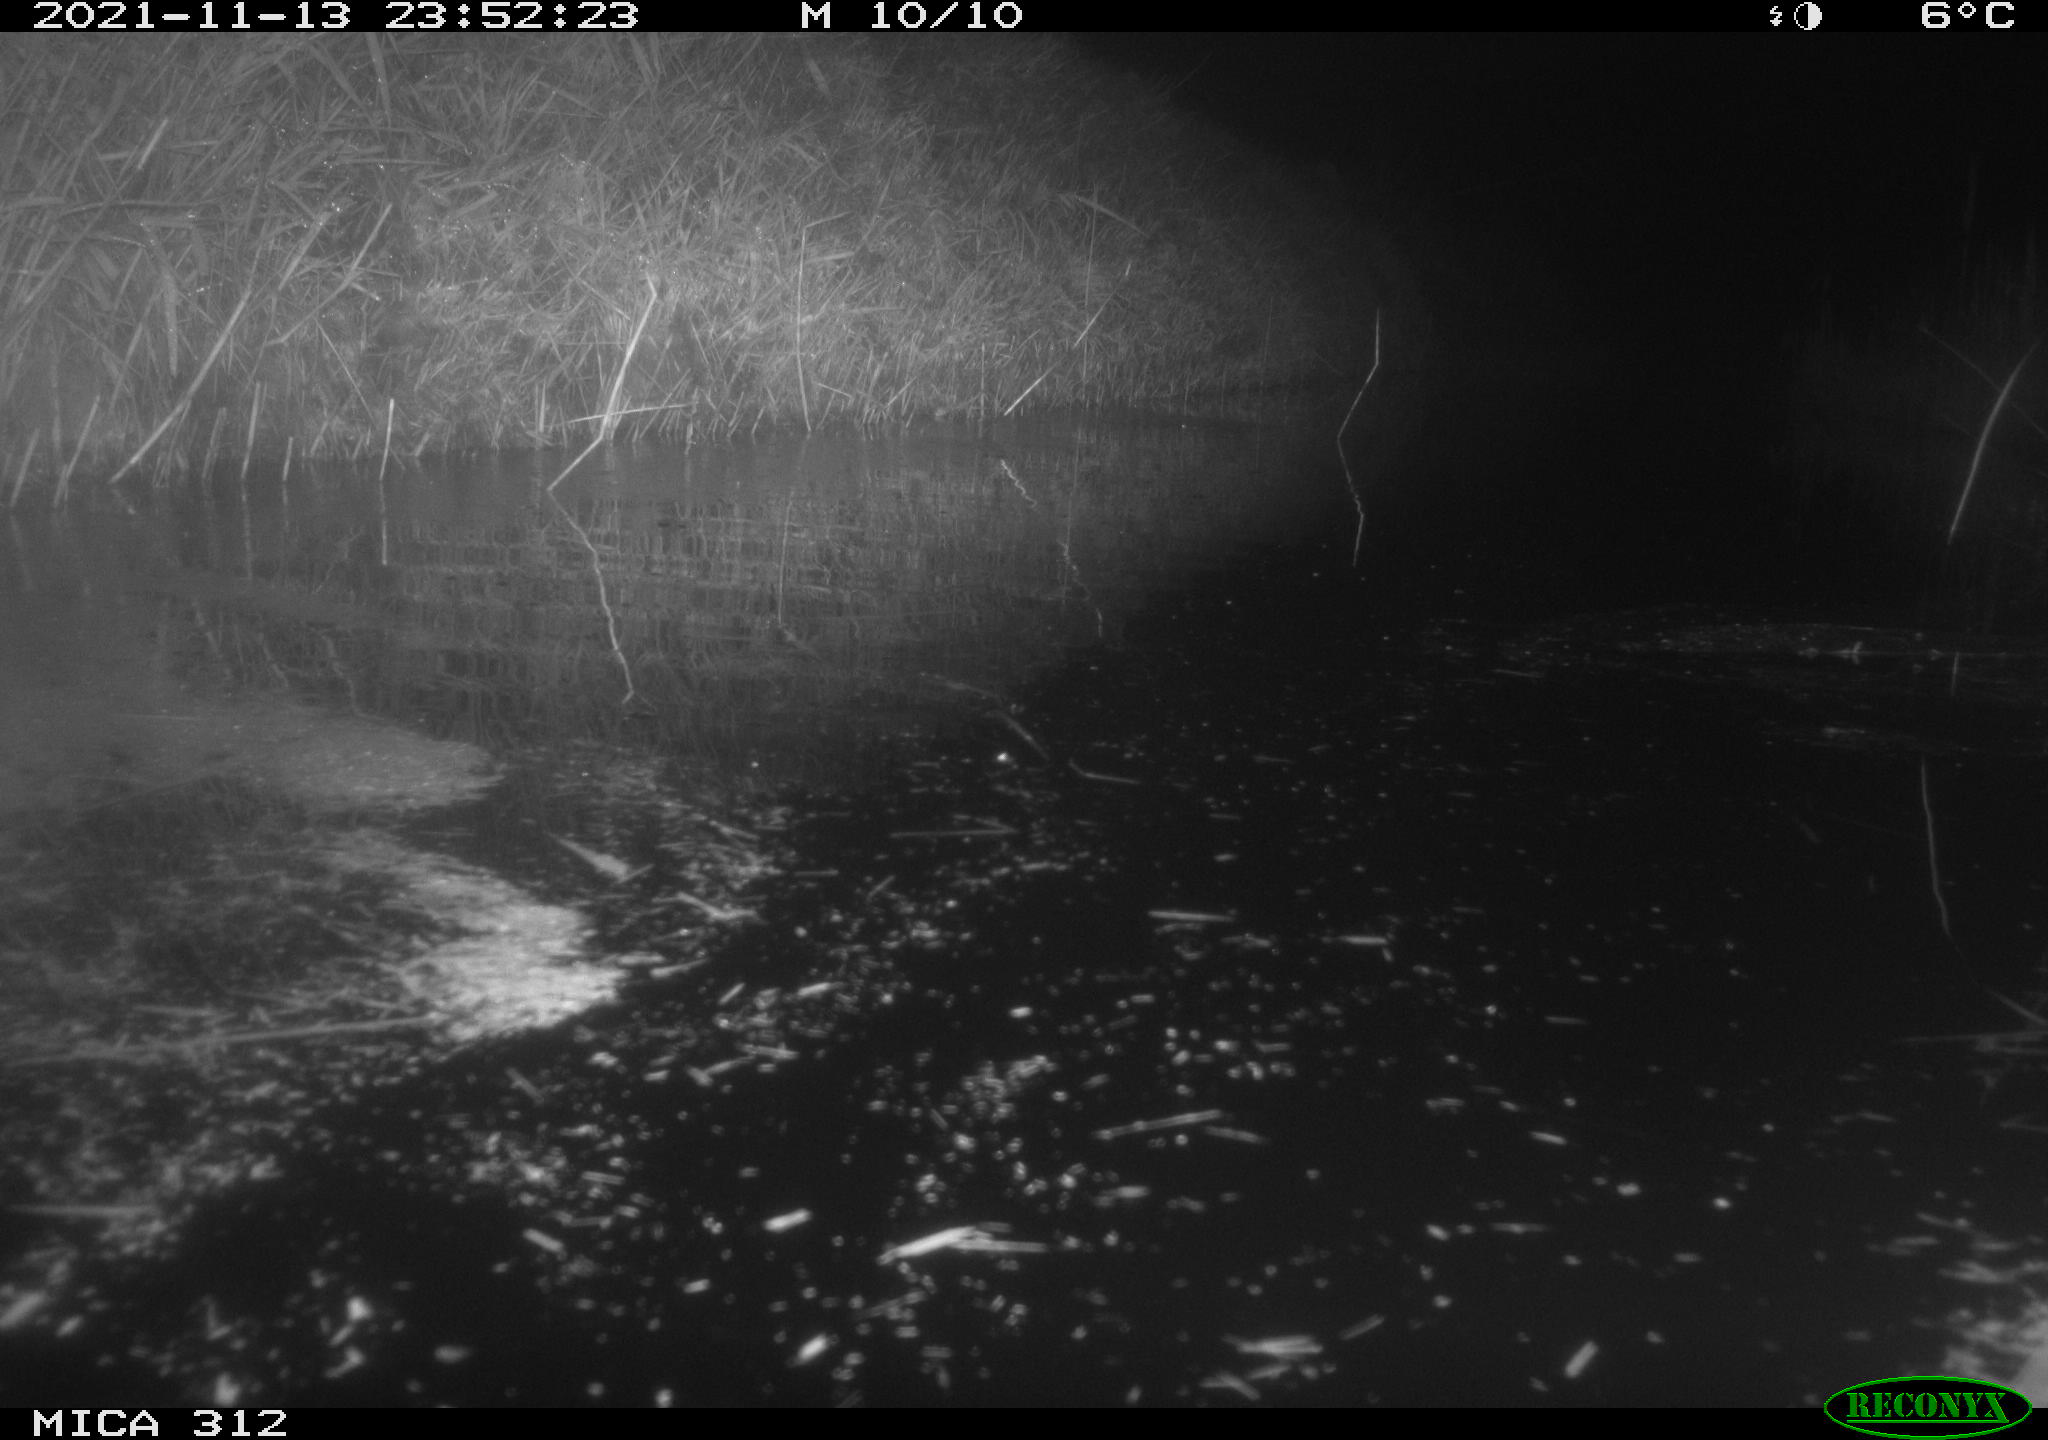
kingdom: Animalia
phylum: Chordata
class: Mammalia
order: Rodentia
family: Muridae
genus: Rattus
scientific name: Rattus norvegicus
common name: Brown rat
